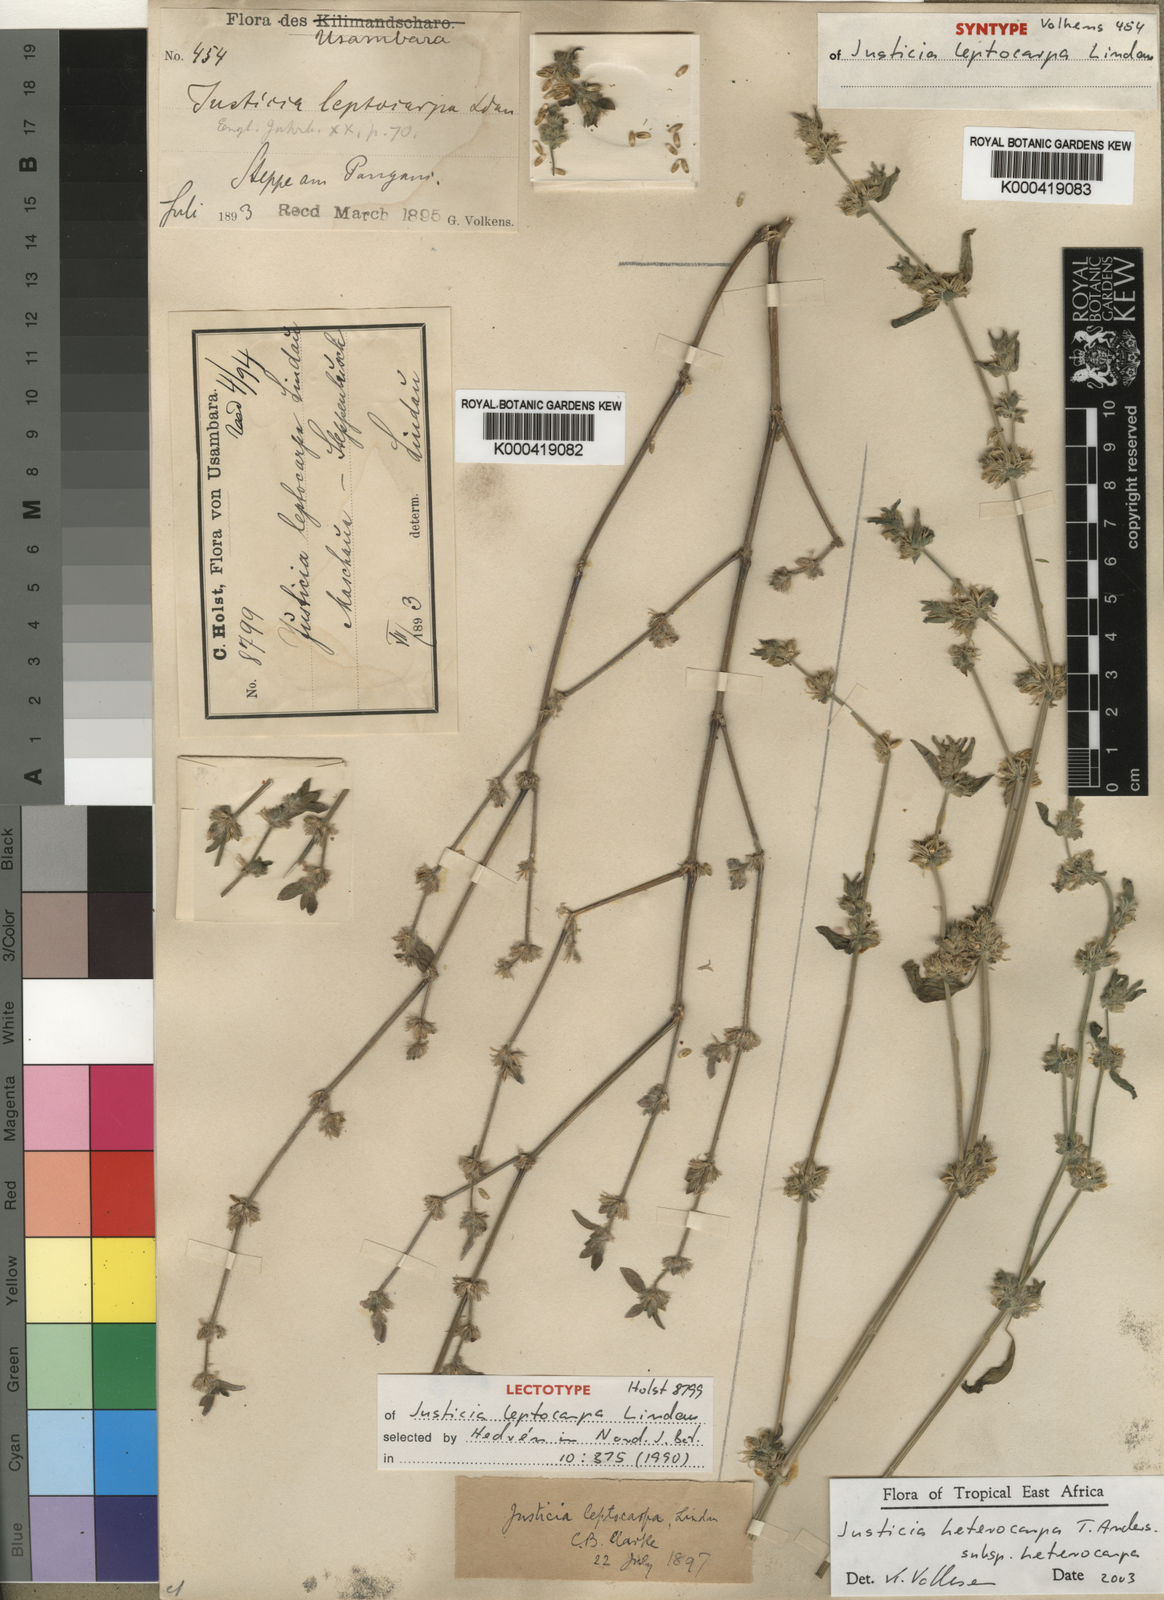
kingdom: Plantae
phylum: Tracheophyta
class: Magnoliopsida
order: Lamiales
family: Acanthaceae
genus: Justicia
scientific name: Justicia heterocarpa
